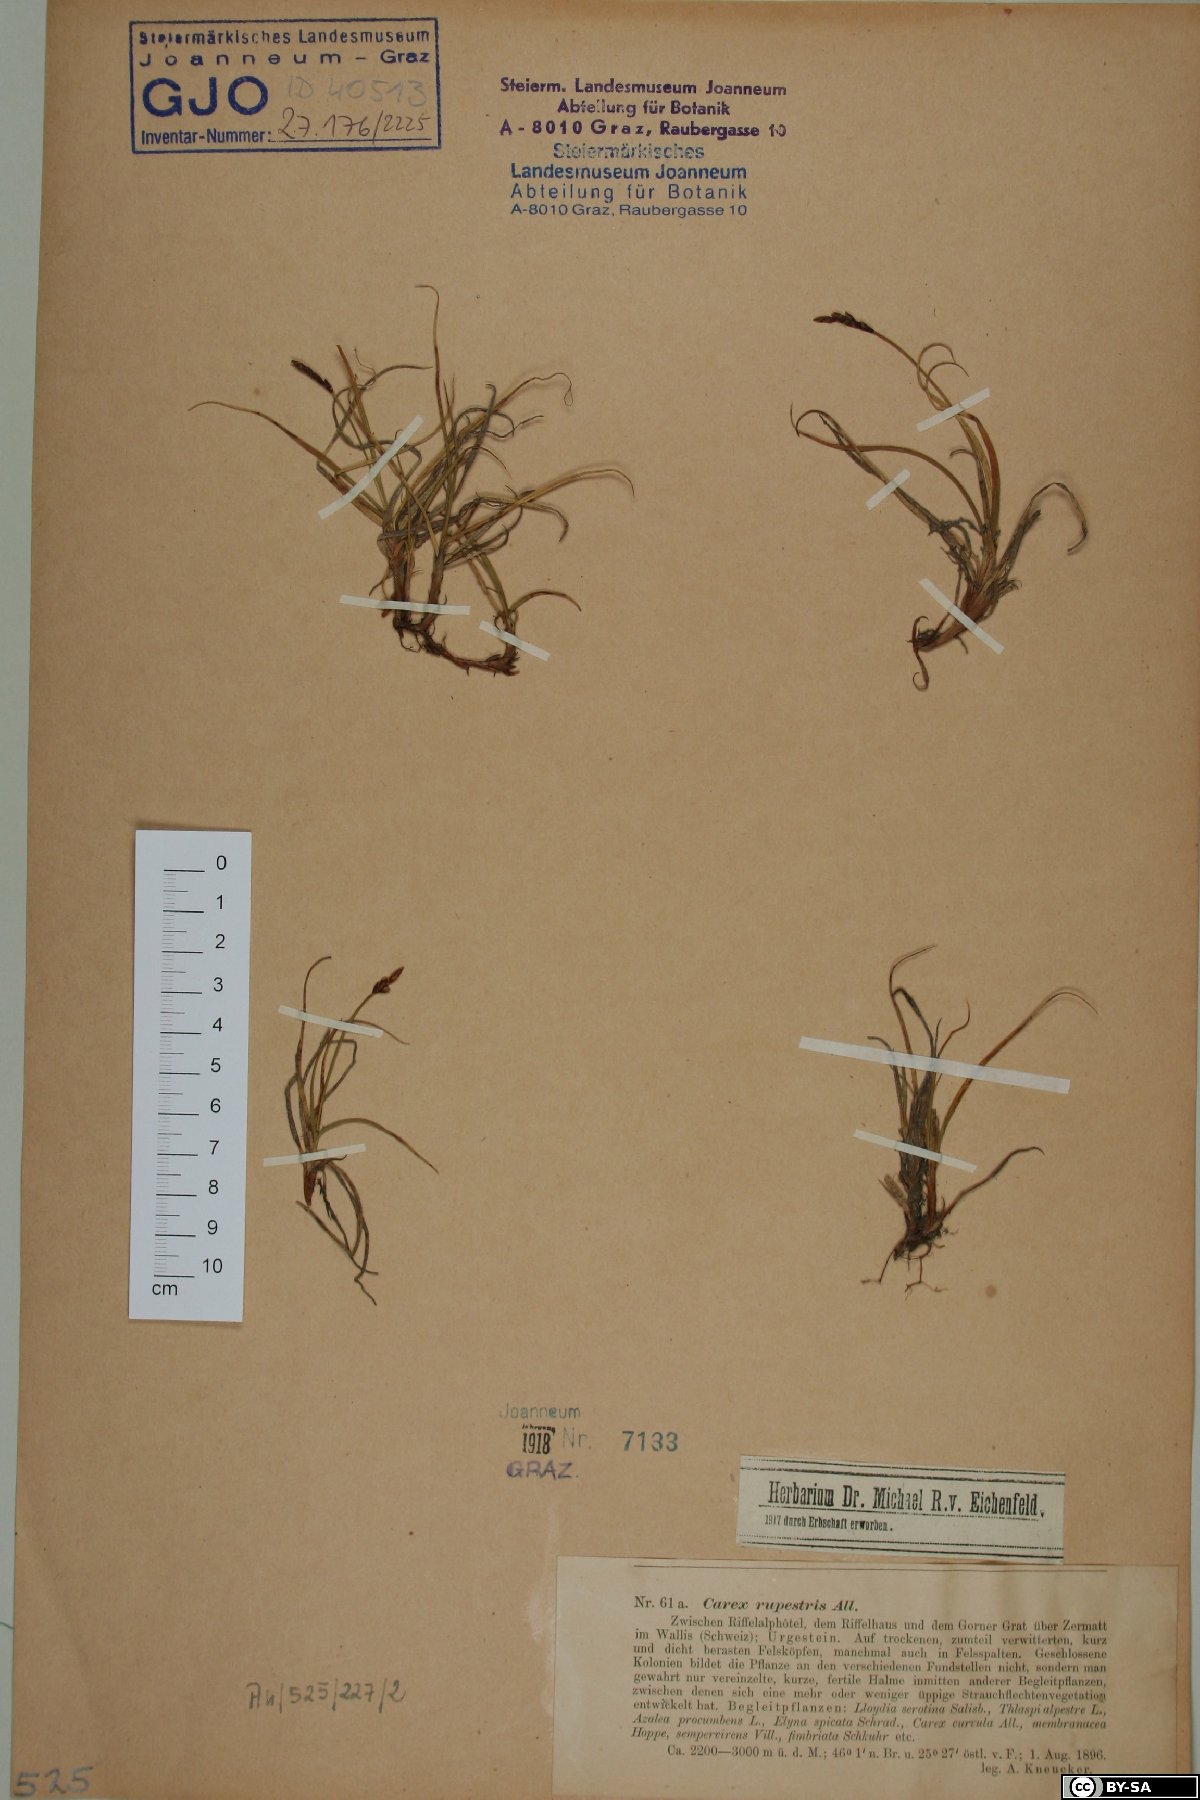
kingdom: Plantae
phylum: Tracheophyta
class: Liliopsida
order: Poales
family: Cyperaceae
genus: Carex
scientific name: Carex rupestris
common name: Rock sedge
